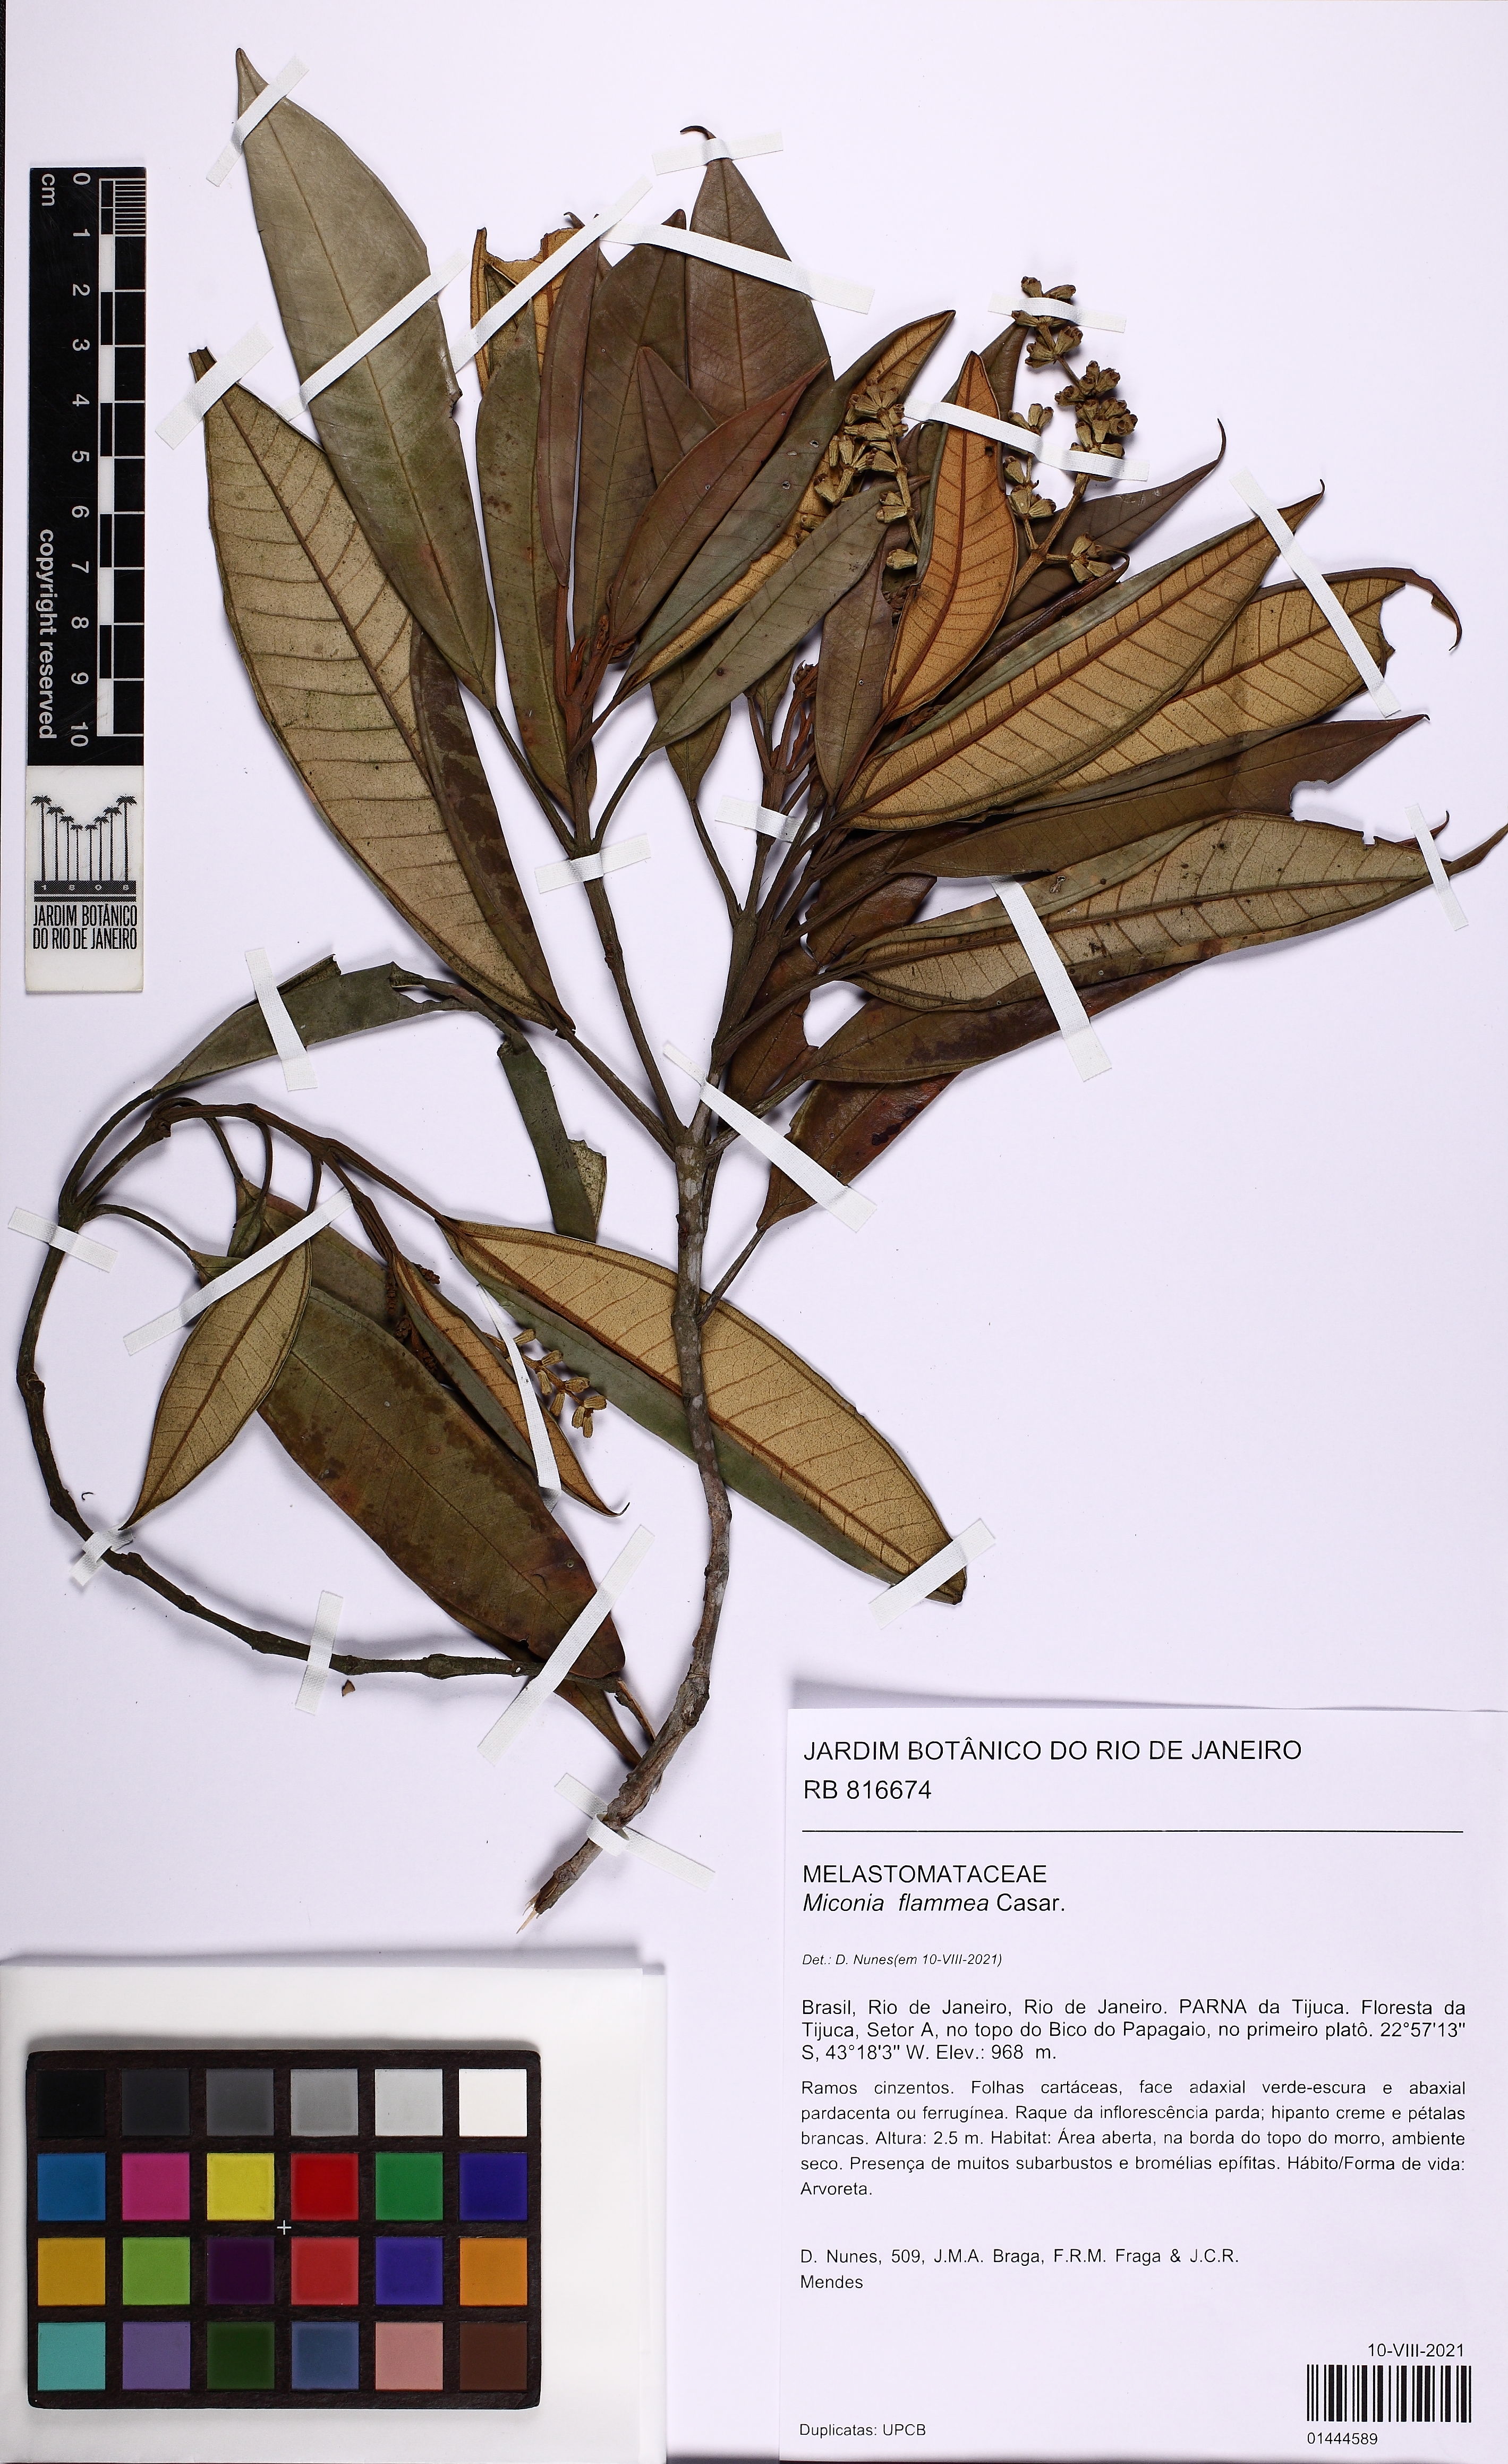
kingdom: Plantae
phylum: Tracheophyta
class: Magnoliopsida
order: Myrtales
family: Melastomataceae
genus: Miconia
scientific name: Miconia flammea
